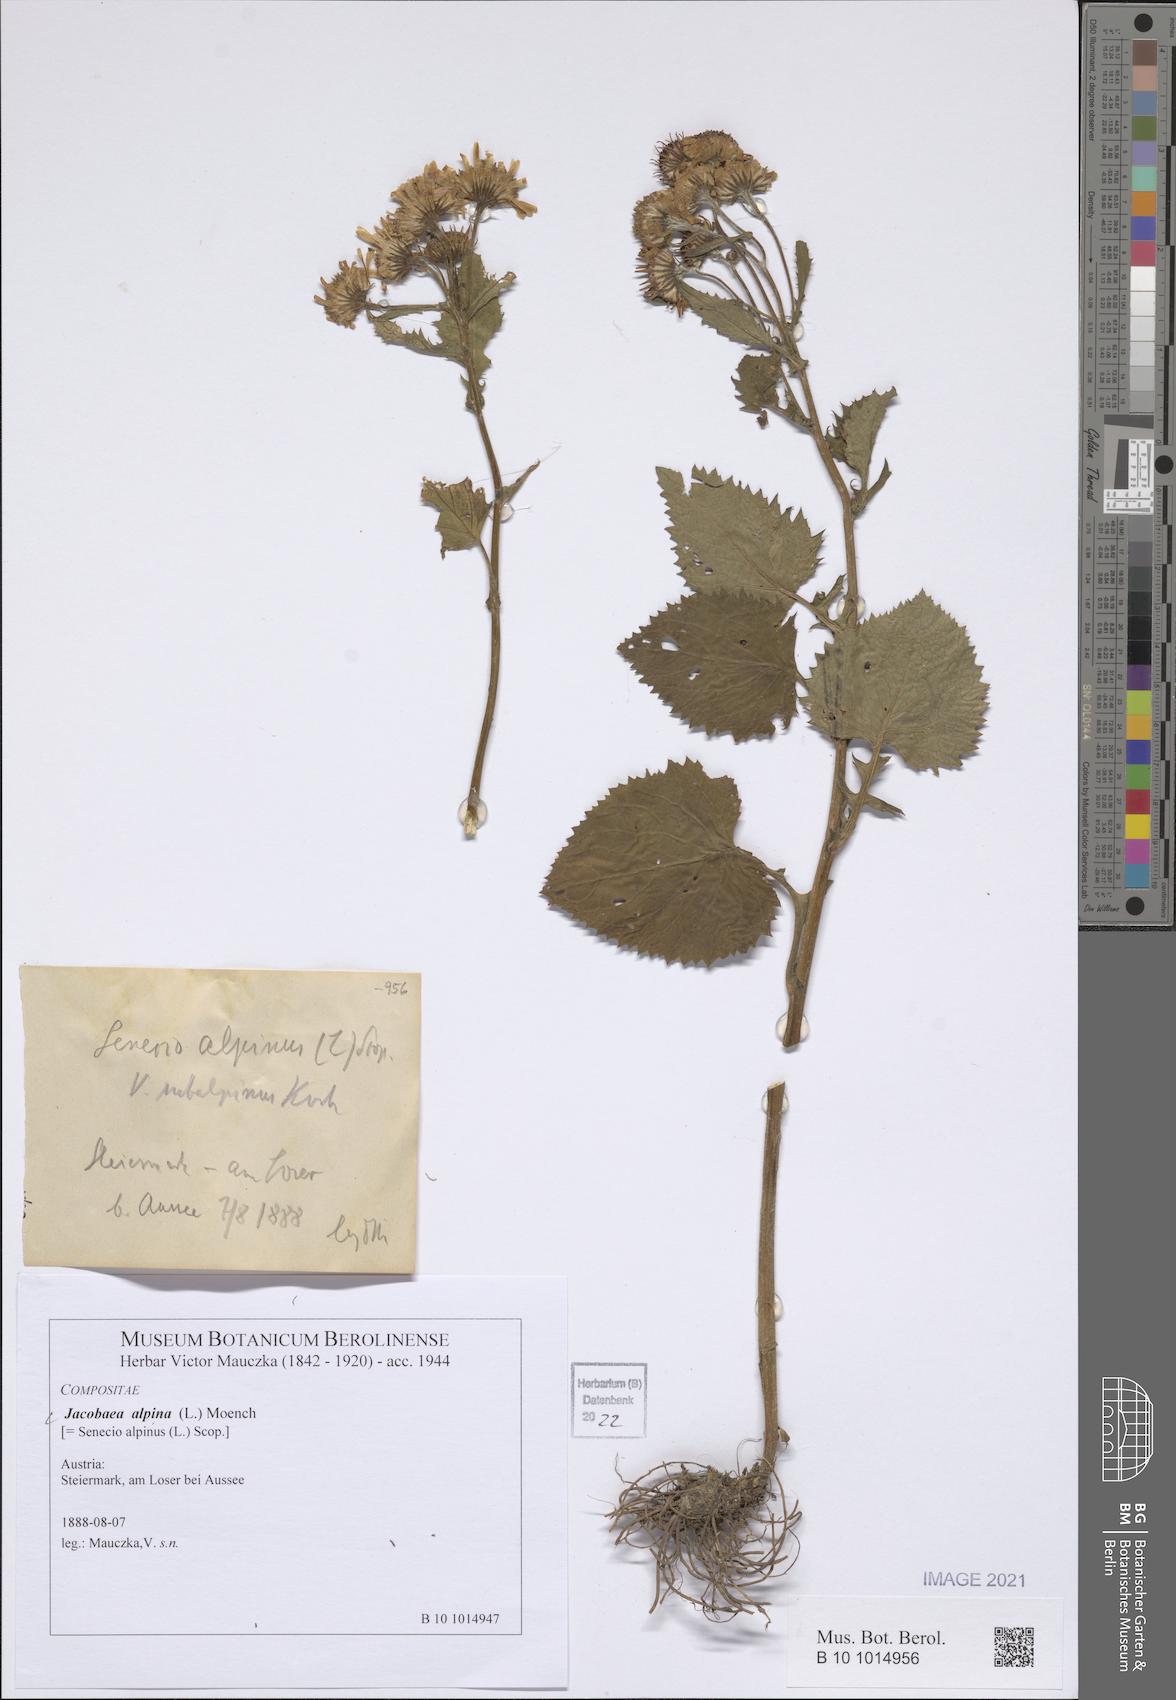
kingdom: Plantae
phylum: Tracheophyta
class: Magnoliopsida
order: Asterales
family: Asteraceae
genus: Jacobaea
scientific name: Jacobaea alpina
